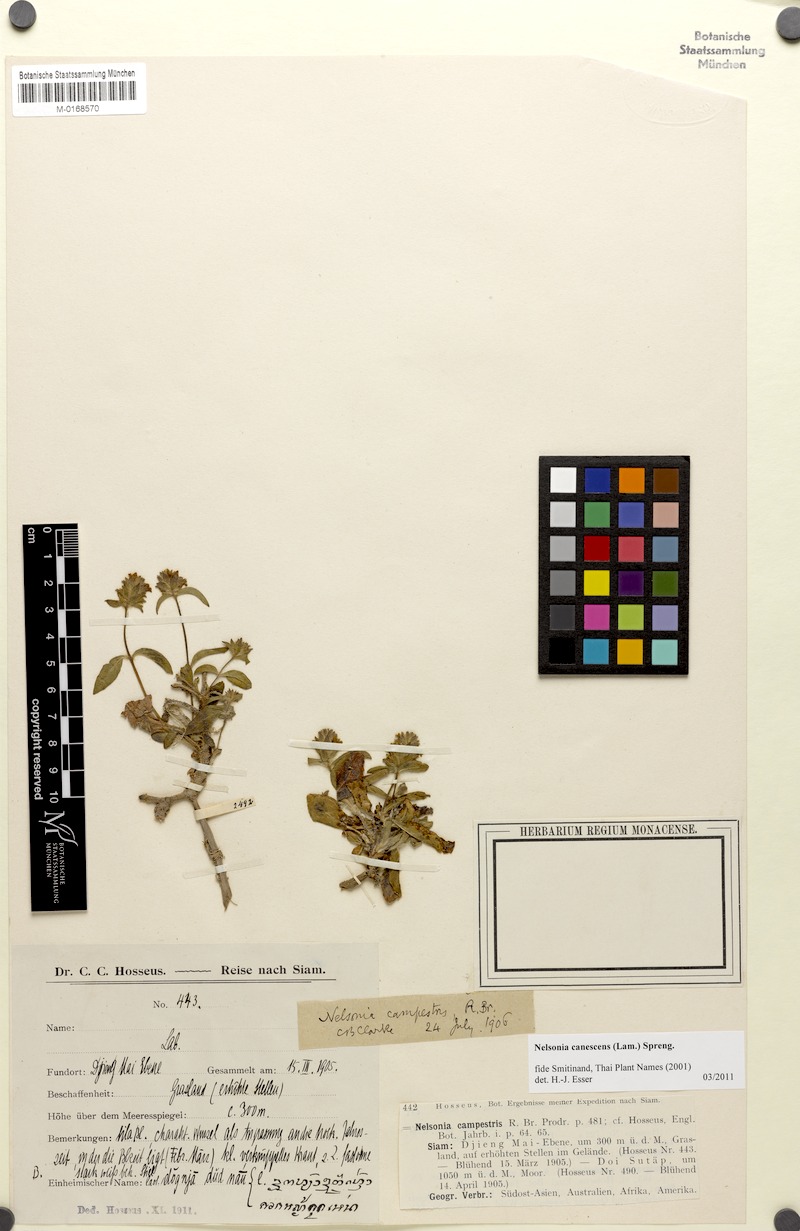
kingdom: Plantae
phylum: Tracheophyta
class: Magnoliopsida
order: Lamiales
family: Acanthaceae
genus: Nelsonia
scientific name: Nelsonia canescens
